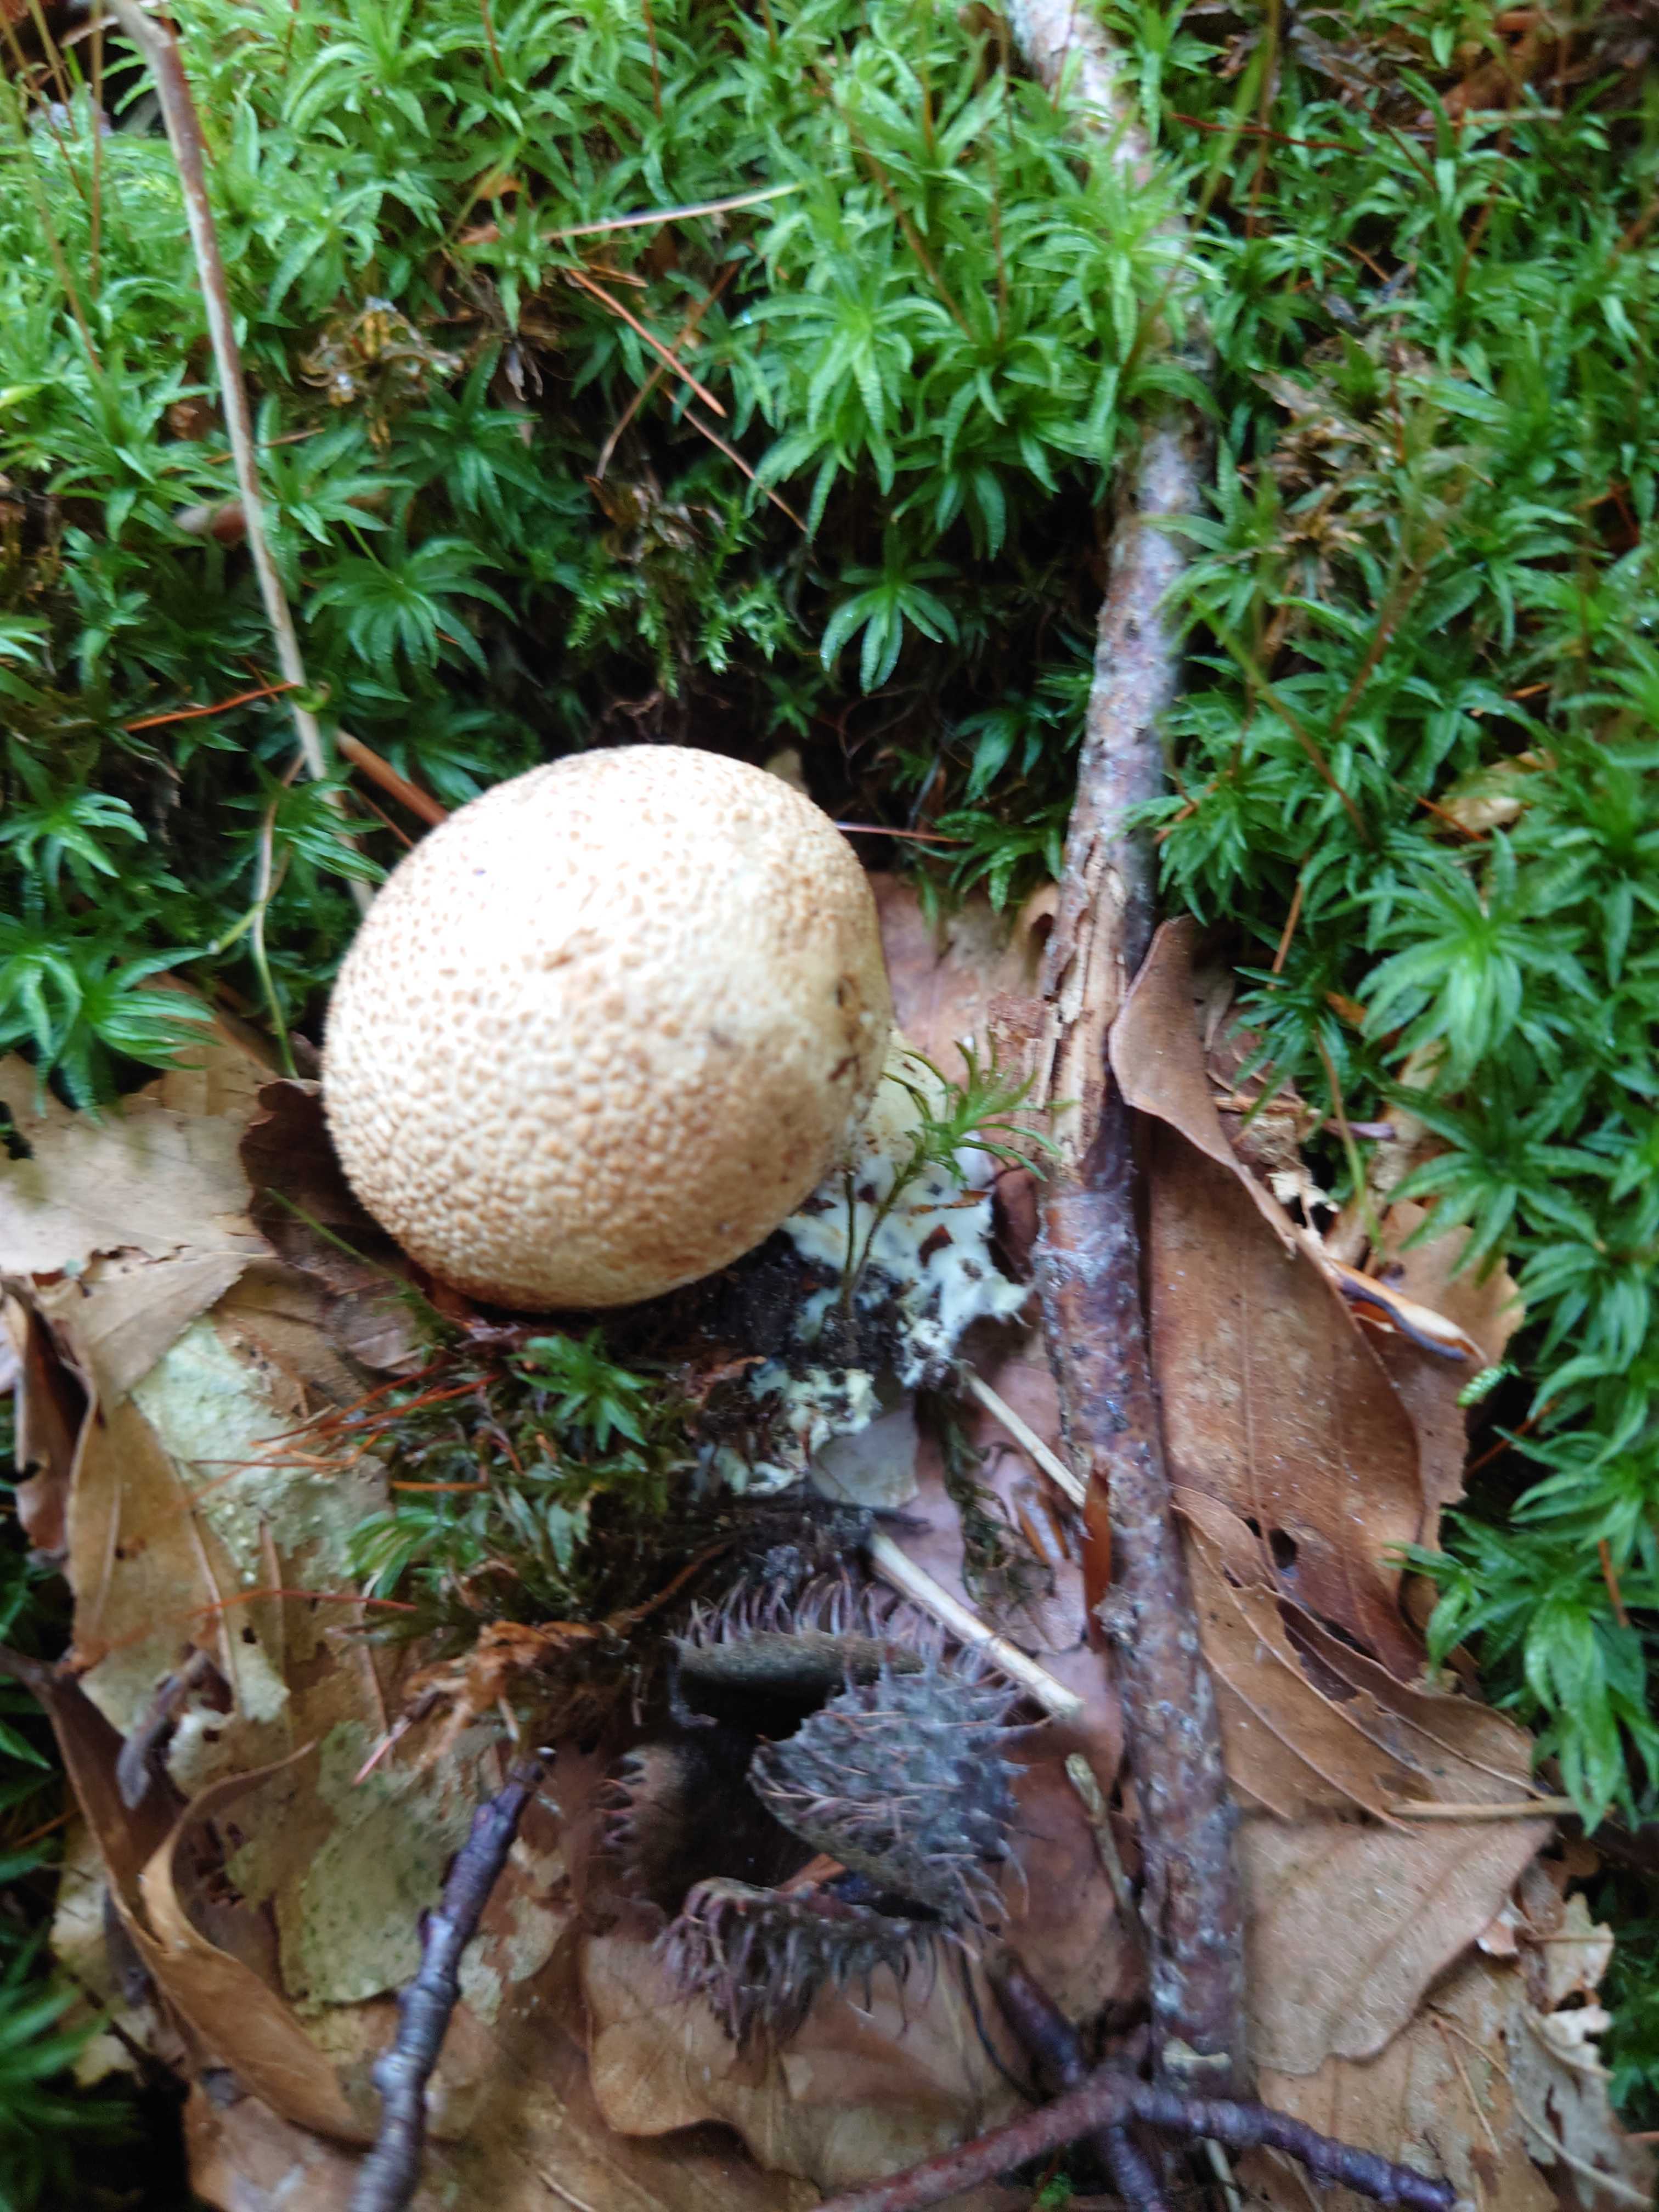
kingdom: Fungi
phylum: Basidiomycota
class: Agaricomycetes
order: Boletales
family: Sclerodermataceae
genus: Scleroderma
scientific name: Scleroderma citrinum
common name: almindelig bruskbold
